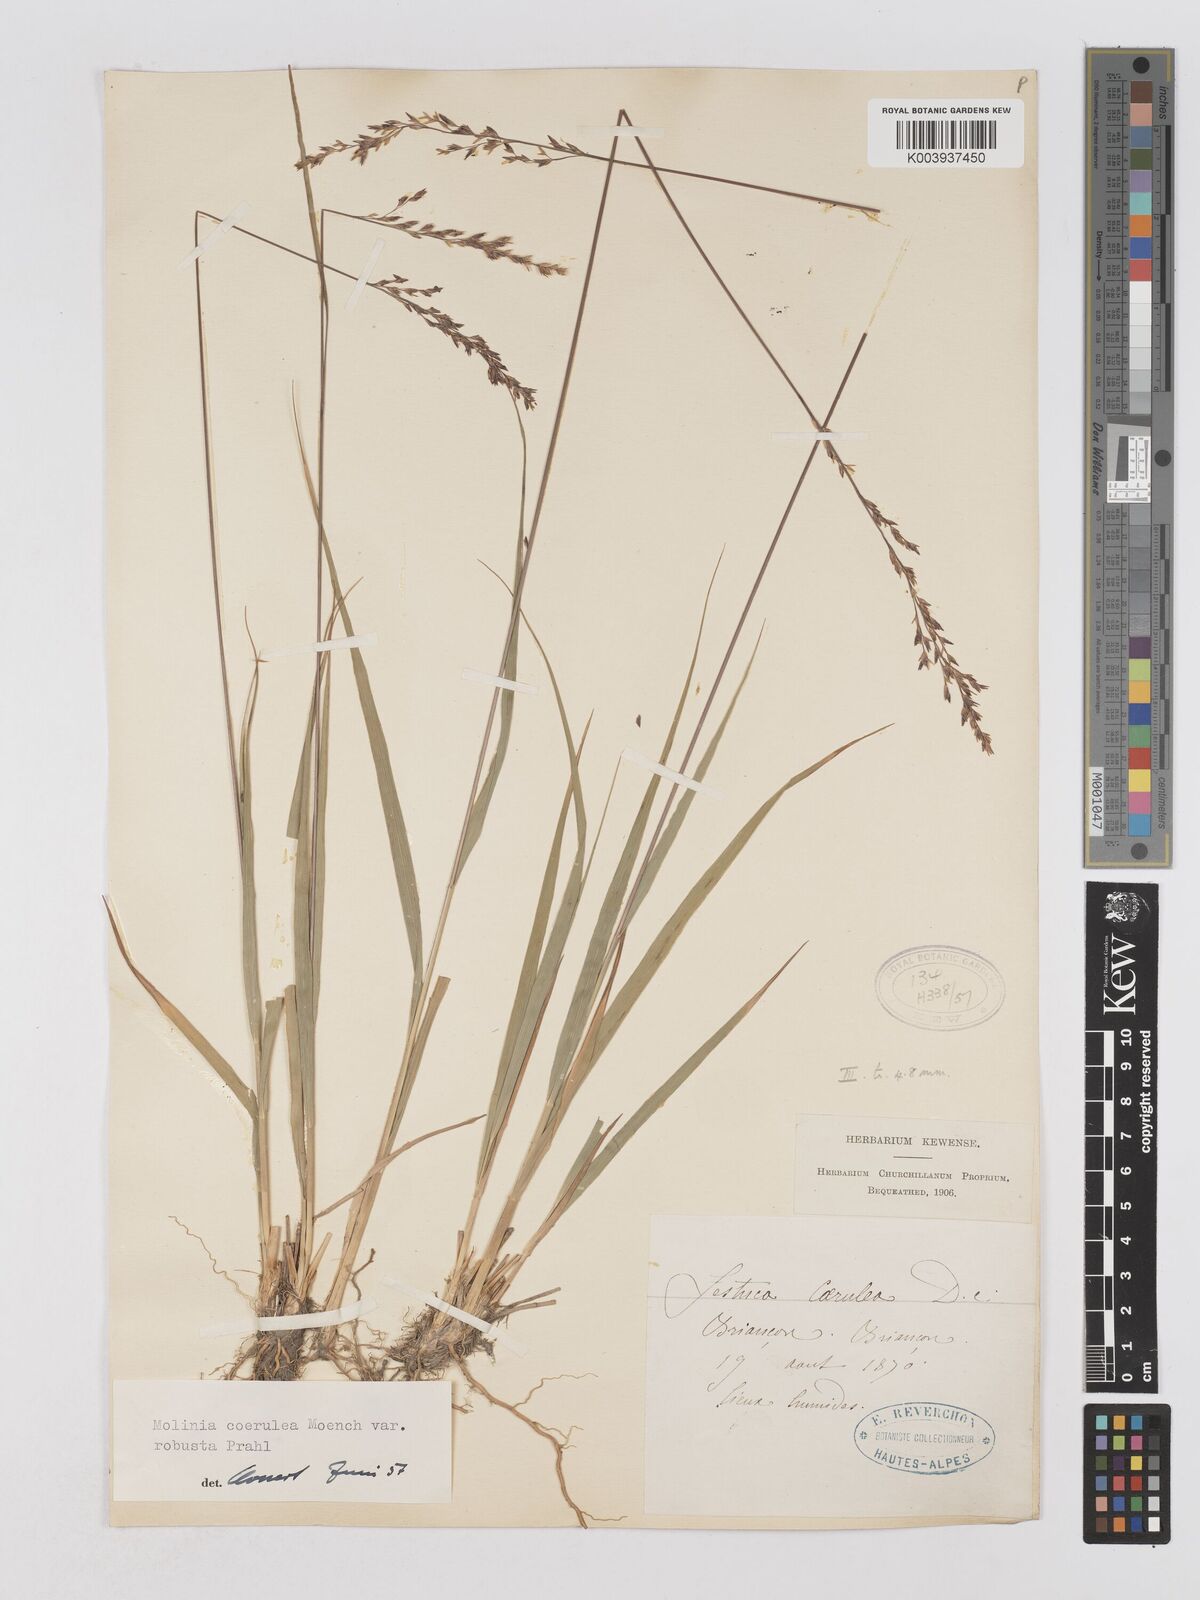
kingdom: Plantae
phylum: Tracheophyta
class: Liliopsida
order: Poales
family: Poaceae
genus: Molinia
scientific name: Molinia caerulea
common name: Purple moor-grass
